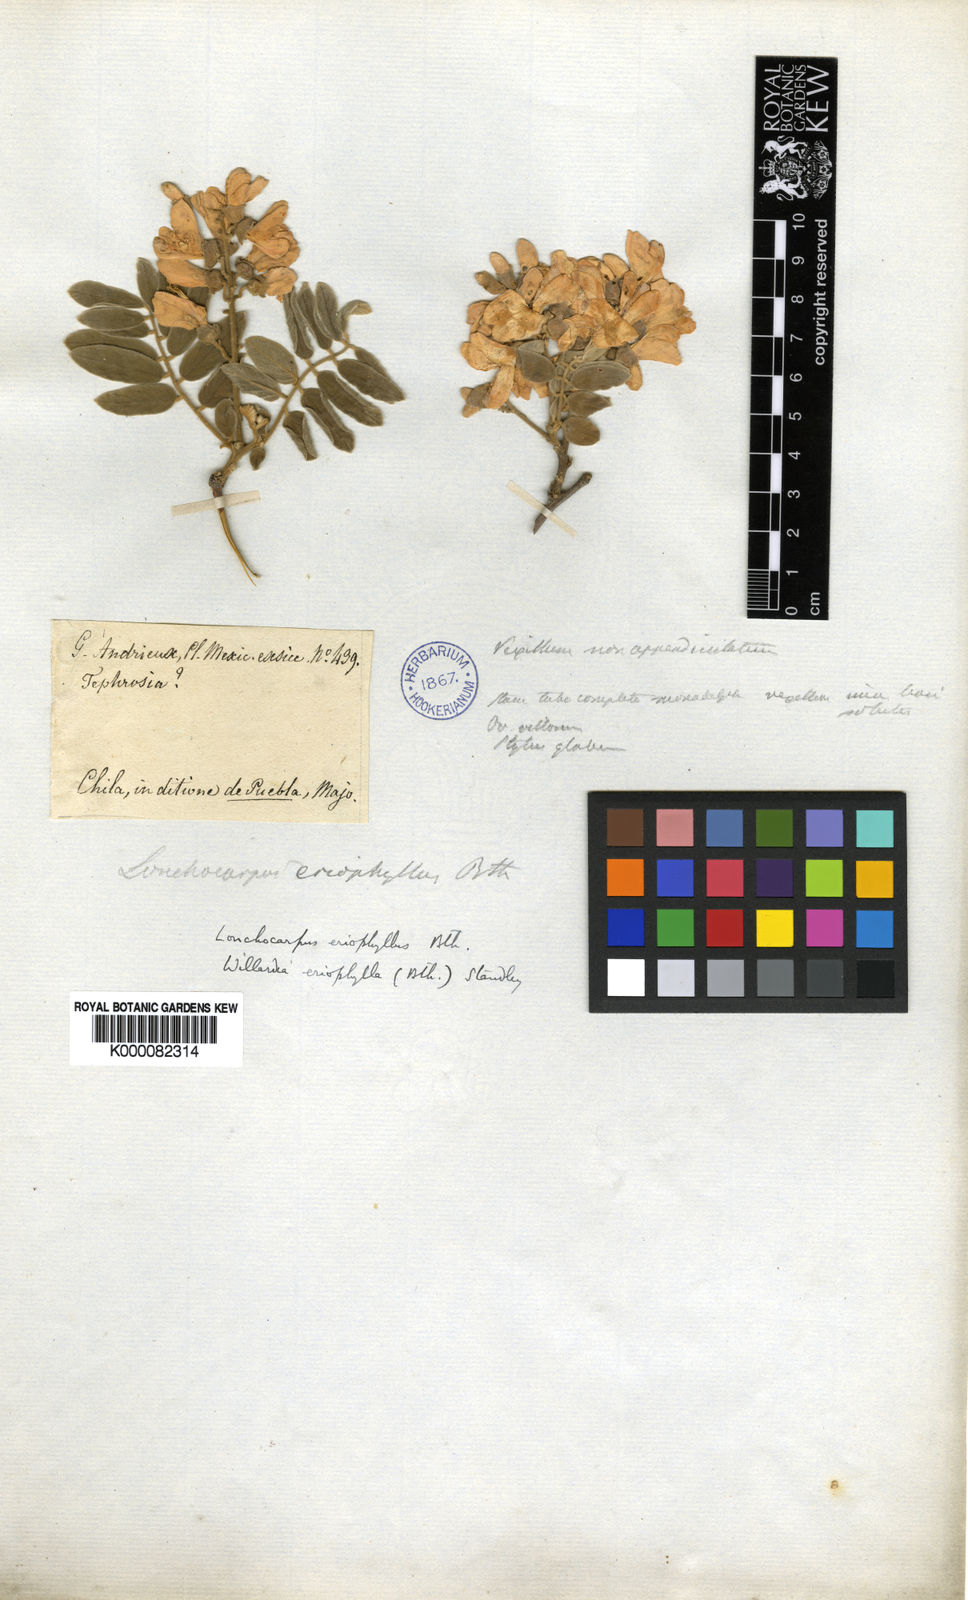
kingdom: Plantae
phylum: Tracheophyta
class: Magnoliopsida
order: Fabales
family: Fabaceae
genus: Lonchocarpus
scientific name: Lonchocarpus eriophyllus
